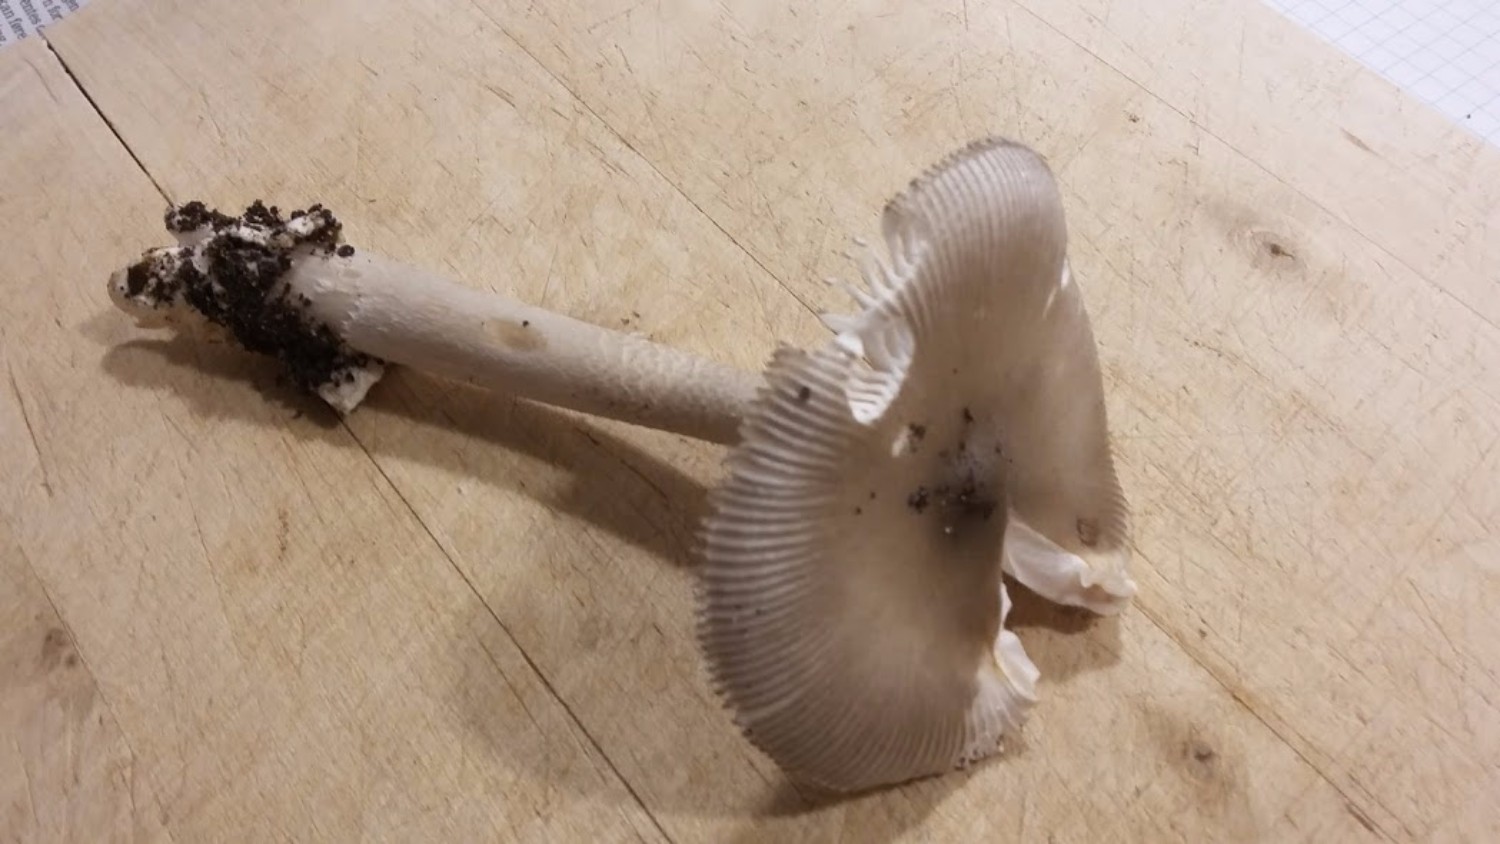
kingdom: Fungi
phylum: Basidiomycota
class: Agaricomycetes
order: Agaricales
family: Amanitaceae
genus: Amanita
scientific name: Amanita vaginata
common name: grå kam-fluesvamp
